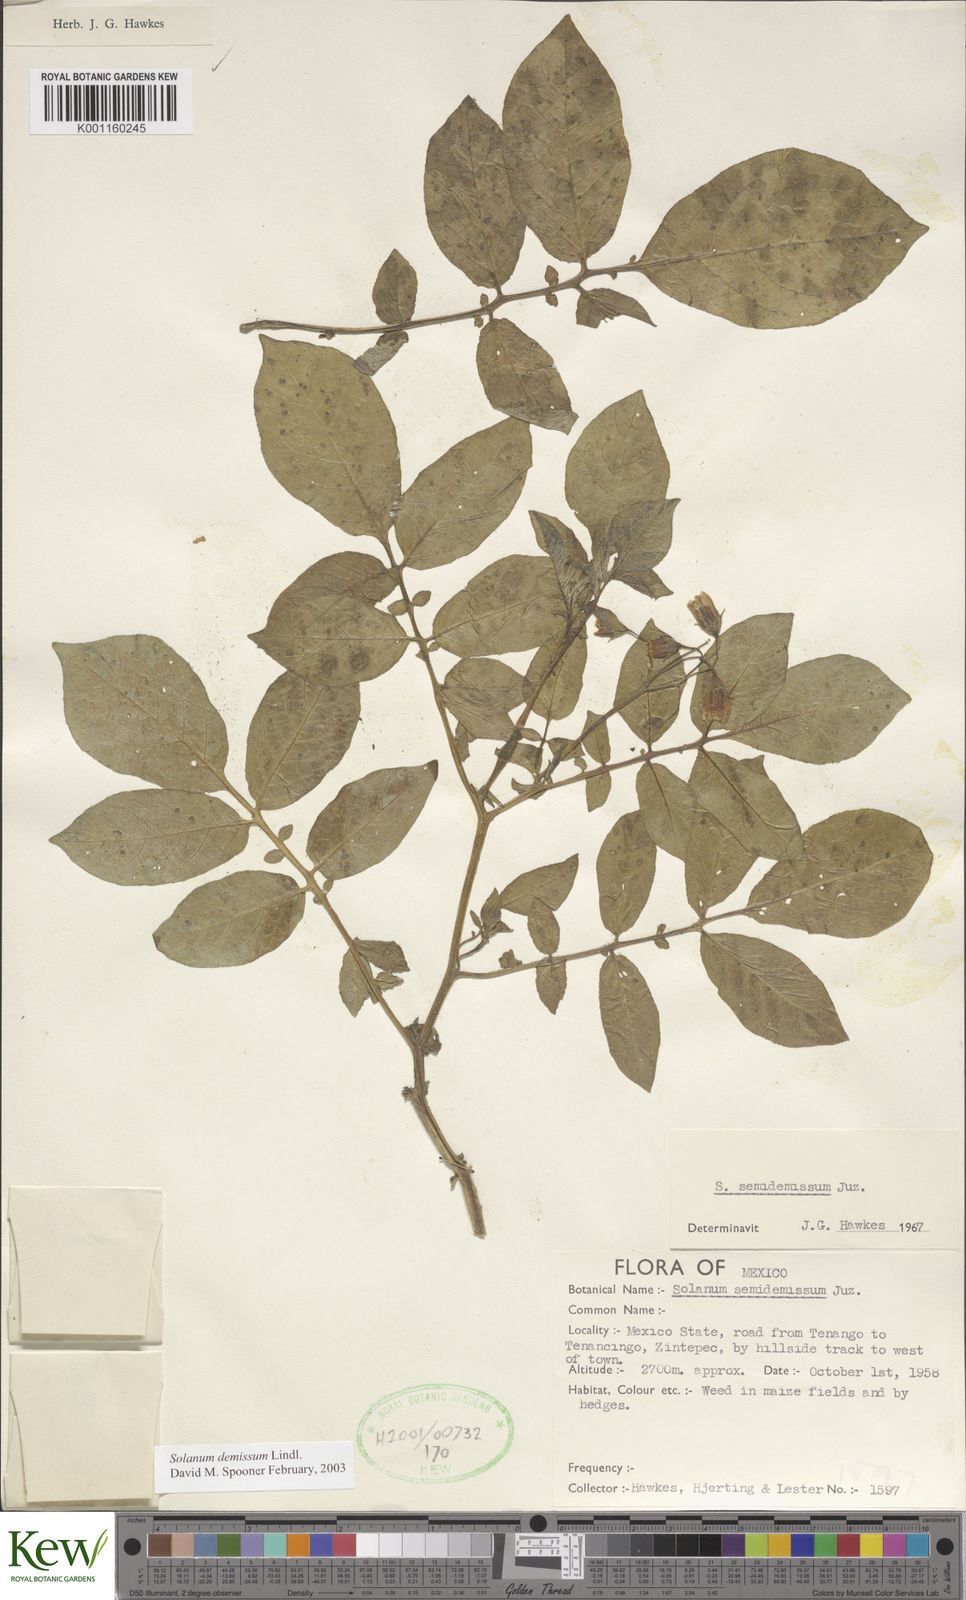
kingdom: Plantae
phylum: Tracheophyta
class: Magnoliopsida
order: Solanales
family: Solanaceae
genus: Solanum
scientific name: Solanum demissum
